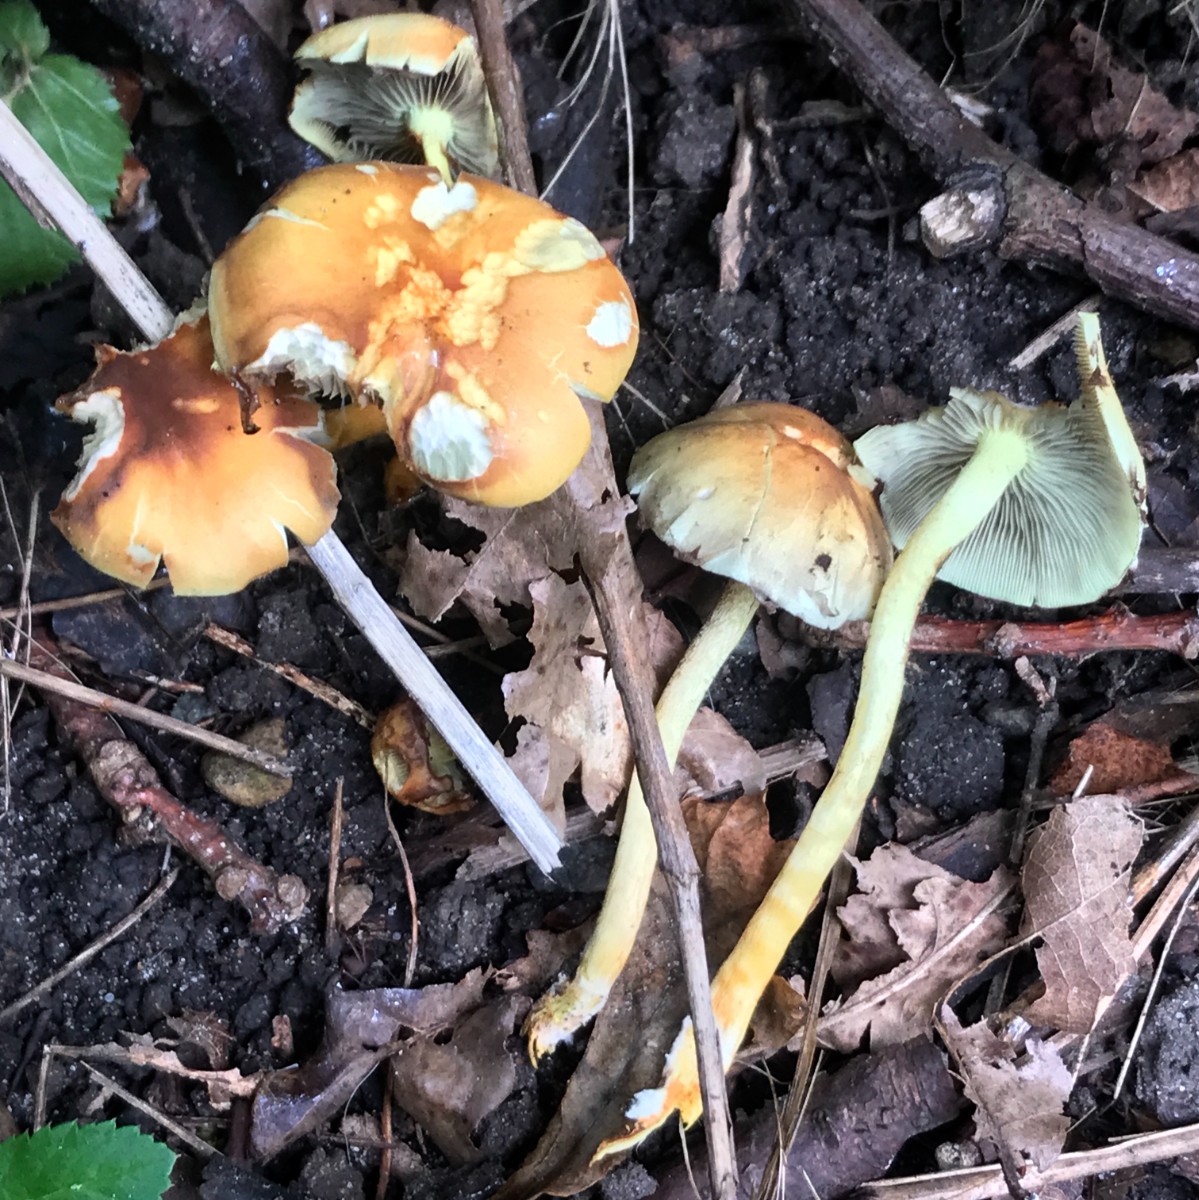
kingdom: Fungi
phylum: Basidiomycota
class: Agaricomycetes
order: Agaricales
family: Strophariaceae
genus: Hypholoma
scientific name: Hypholoma fasciculare
